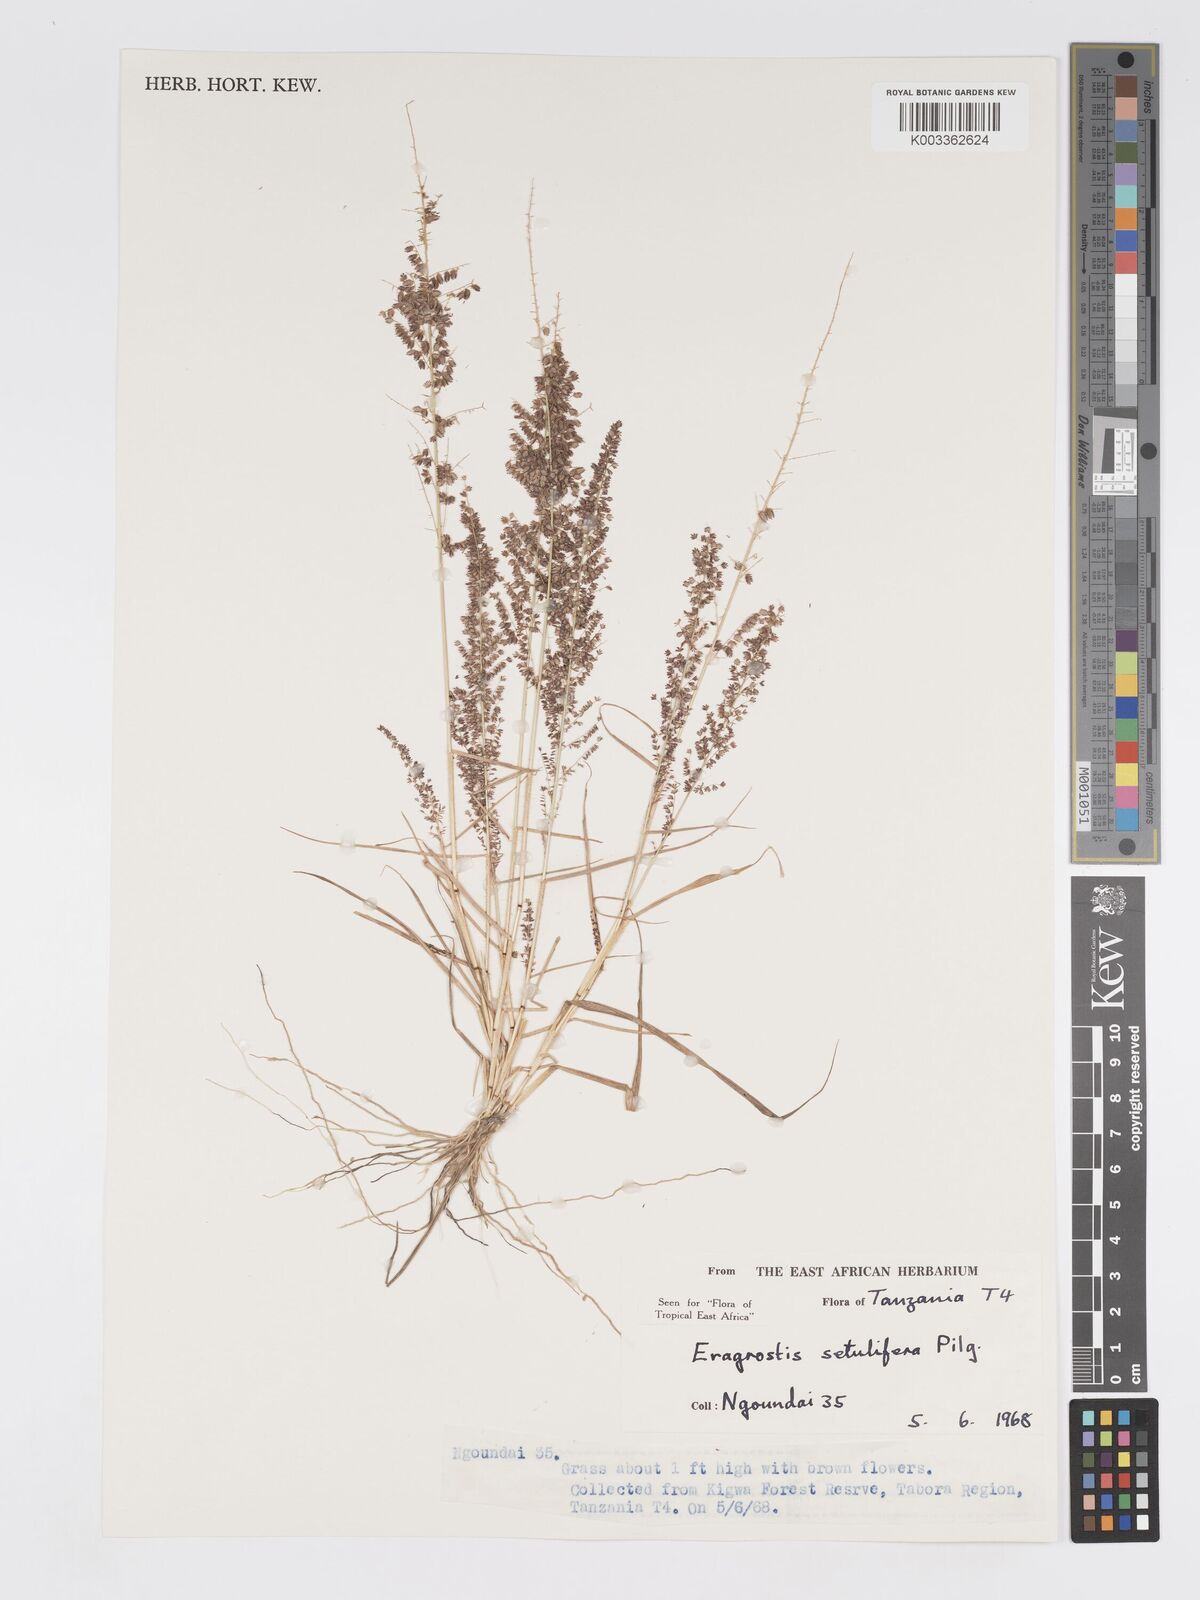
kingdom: Plantae
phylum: Tracheophyta
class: Liliopsida
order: Poales
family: Poaceae
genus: Eragrostis
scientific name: Eragrostis setulifera
